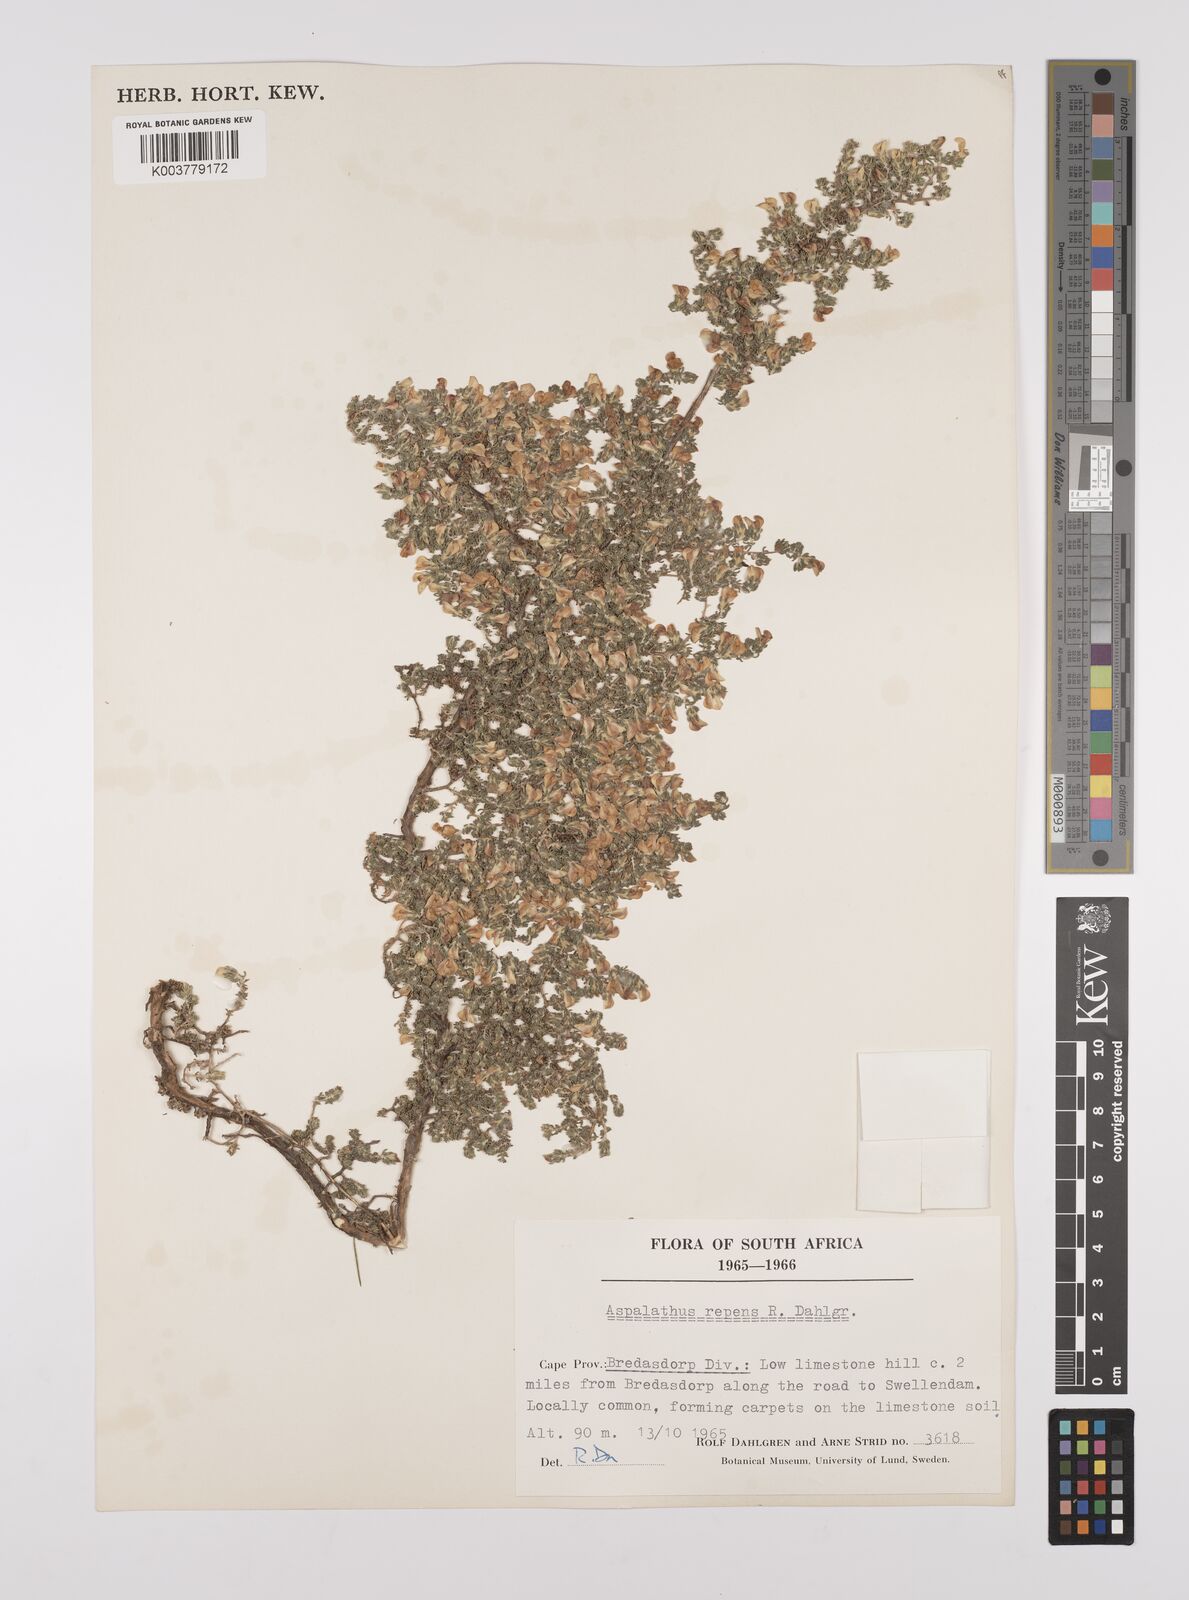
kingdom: Plantae
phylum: Tracheophyta
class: Magnoliopsida
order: Fabales
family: Fabaceae
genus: Aspalathus
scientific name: Aspalathus repens
